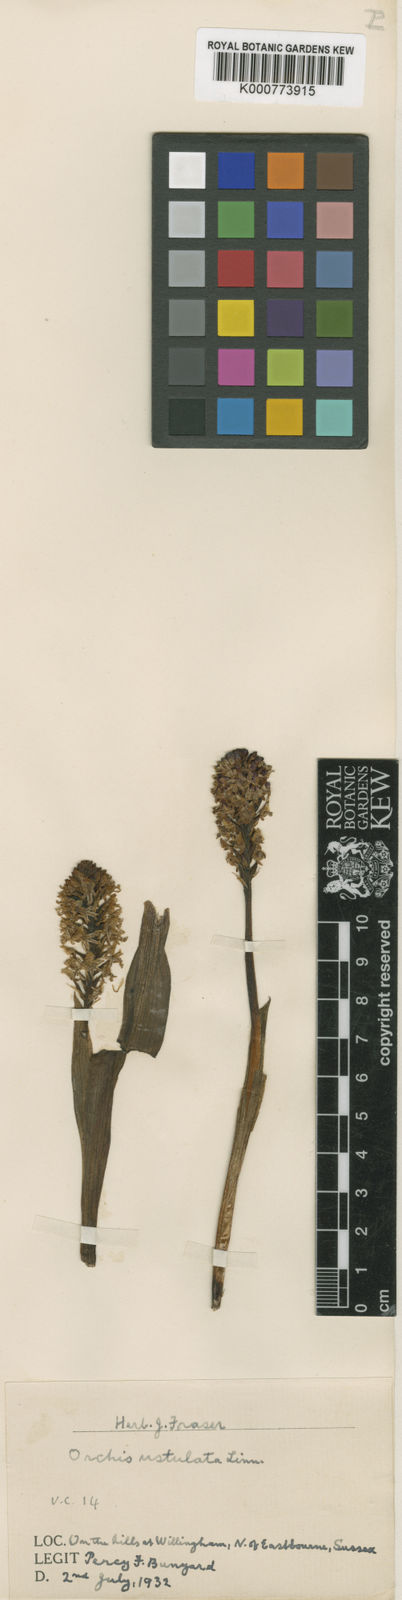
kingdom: Plantae
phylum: Tracheophyta
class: Liliopsida
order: Asparagales
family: Orchidaceae
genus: Neotinea
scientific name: Neotinea ustulata
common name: Burnt orchid
